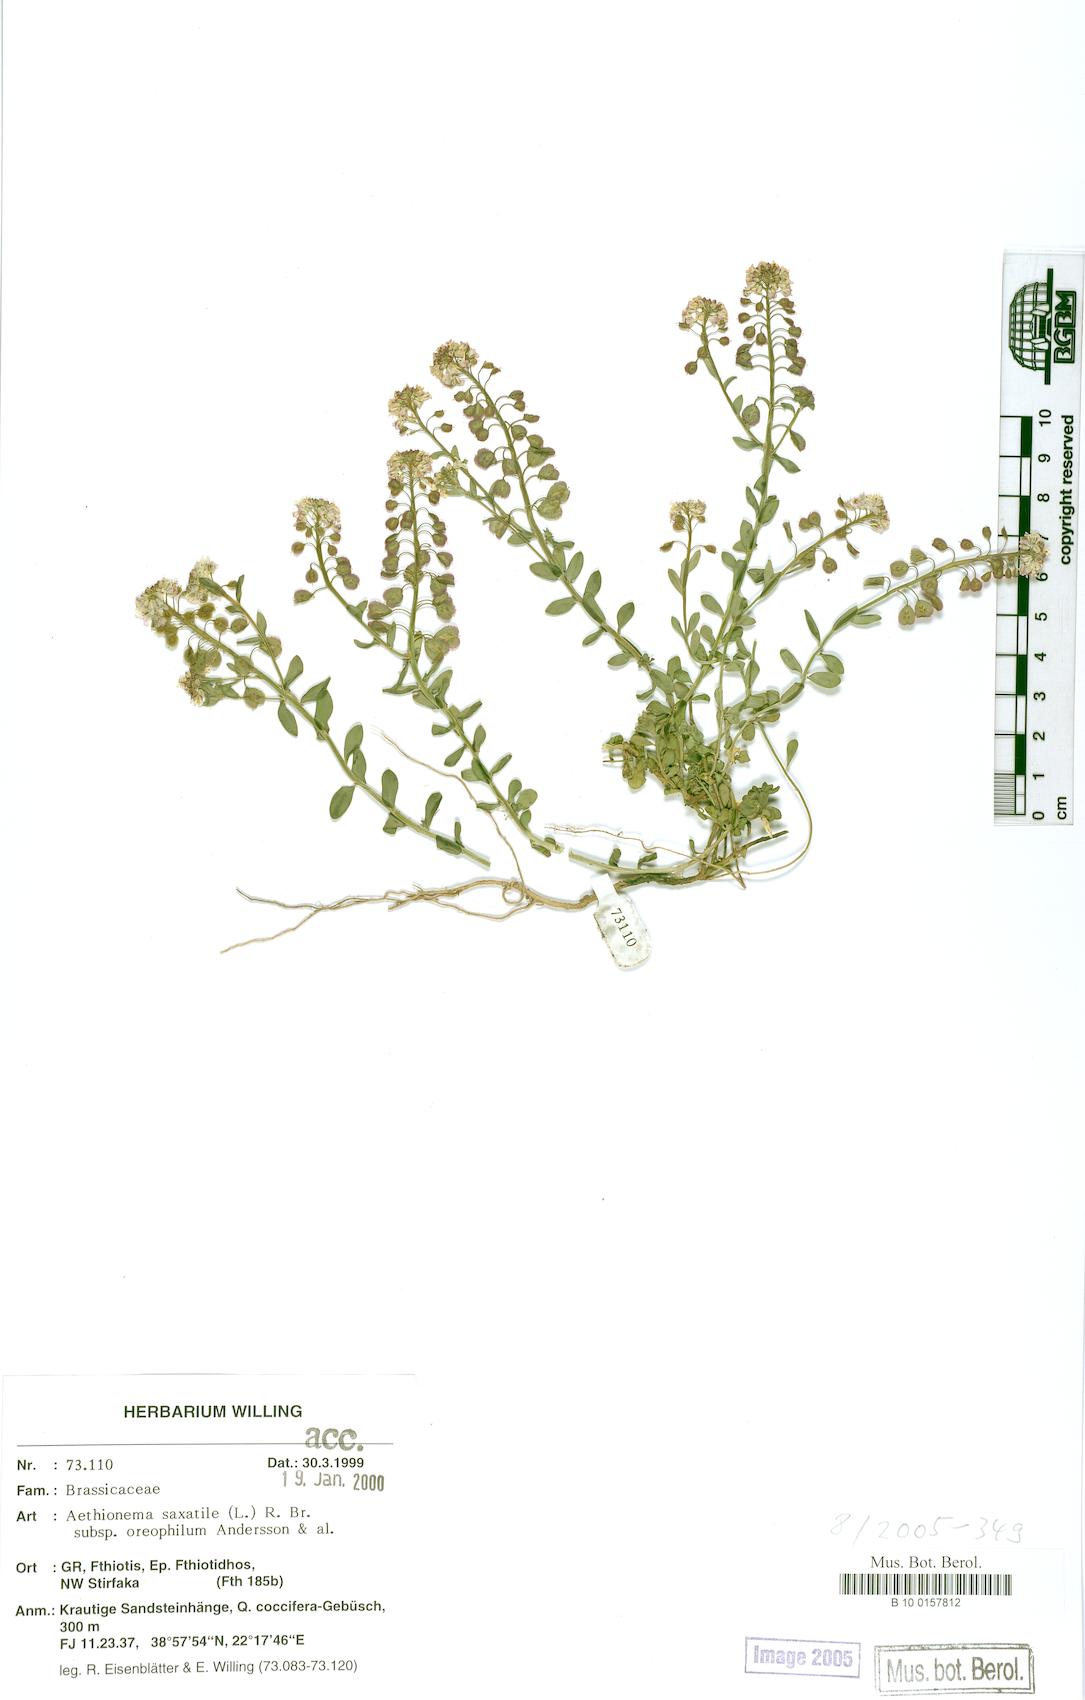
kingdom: Plantae
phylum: Tracheophyta
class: Magnoliopsida
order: Brassicales
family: Brassicaceae
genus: Aethionema
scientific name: Aethionema saxatile
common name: Burnt candytuft
